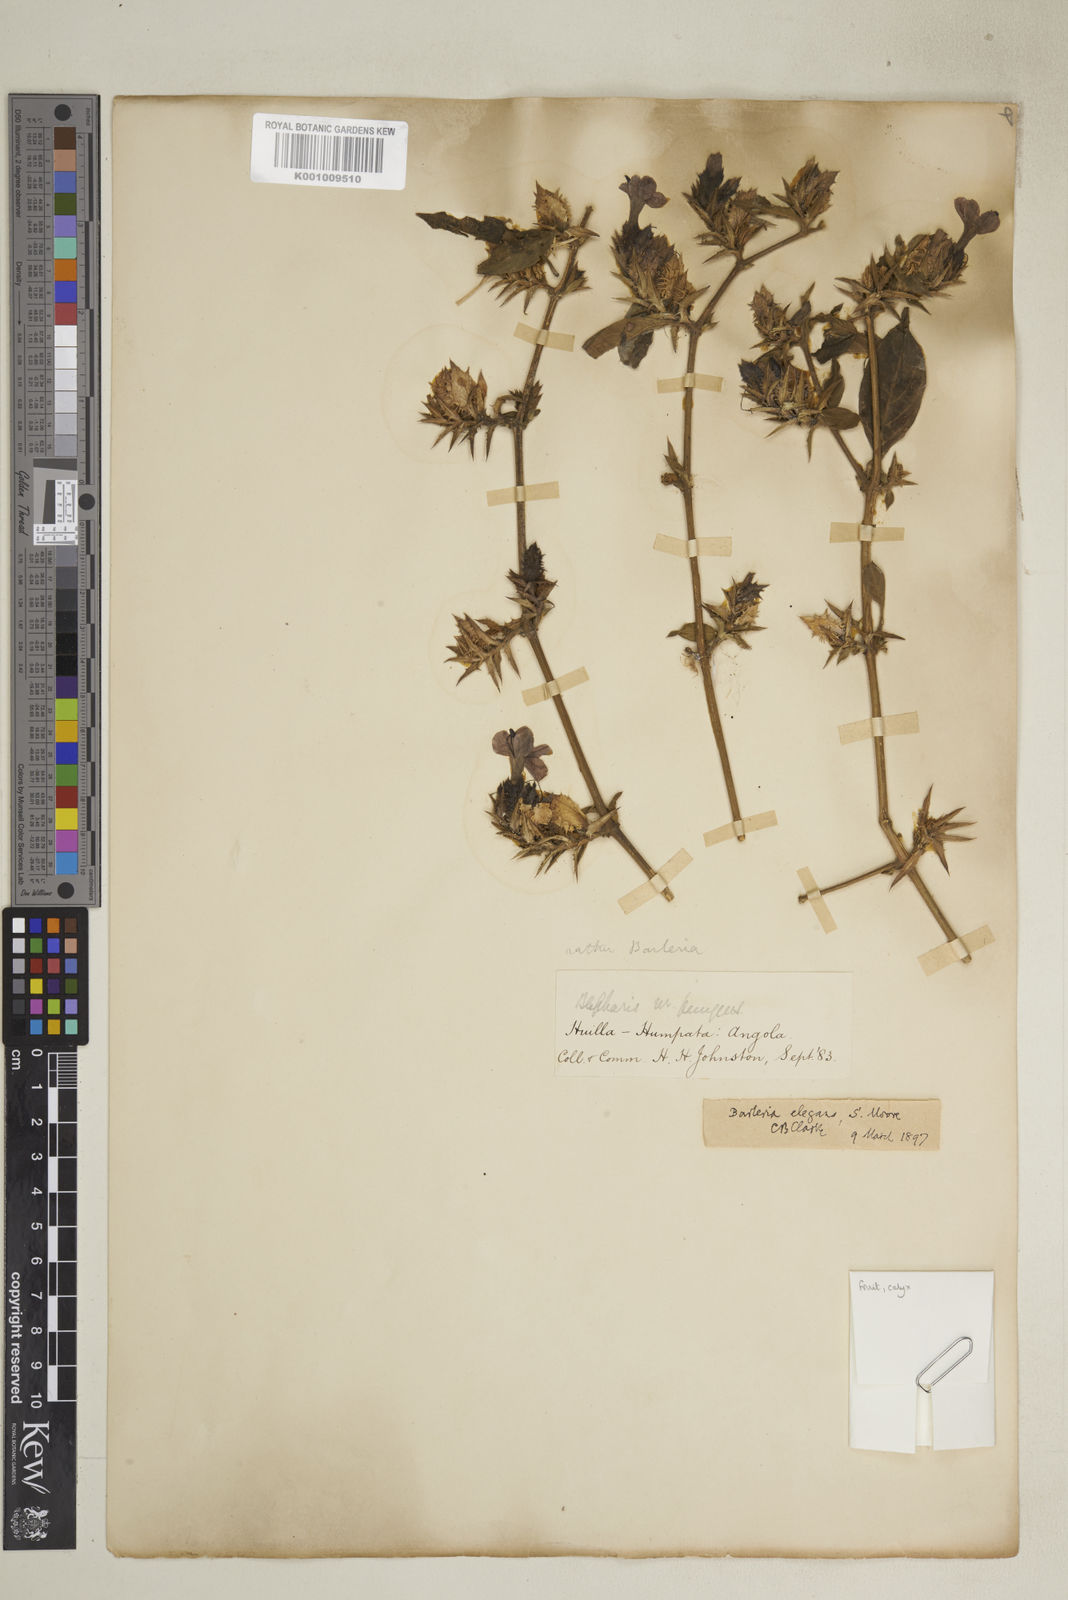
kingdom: Plantae
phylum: Tracheophyta
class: Magnoliopsida
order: Lamiales
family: Acanthaceae
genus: Barleria
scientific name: Barleria
